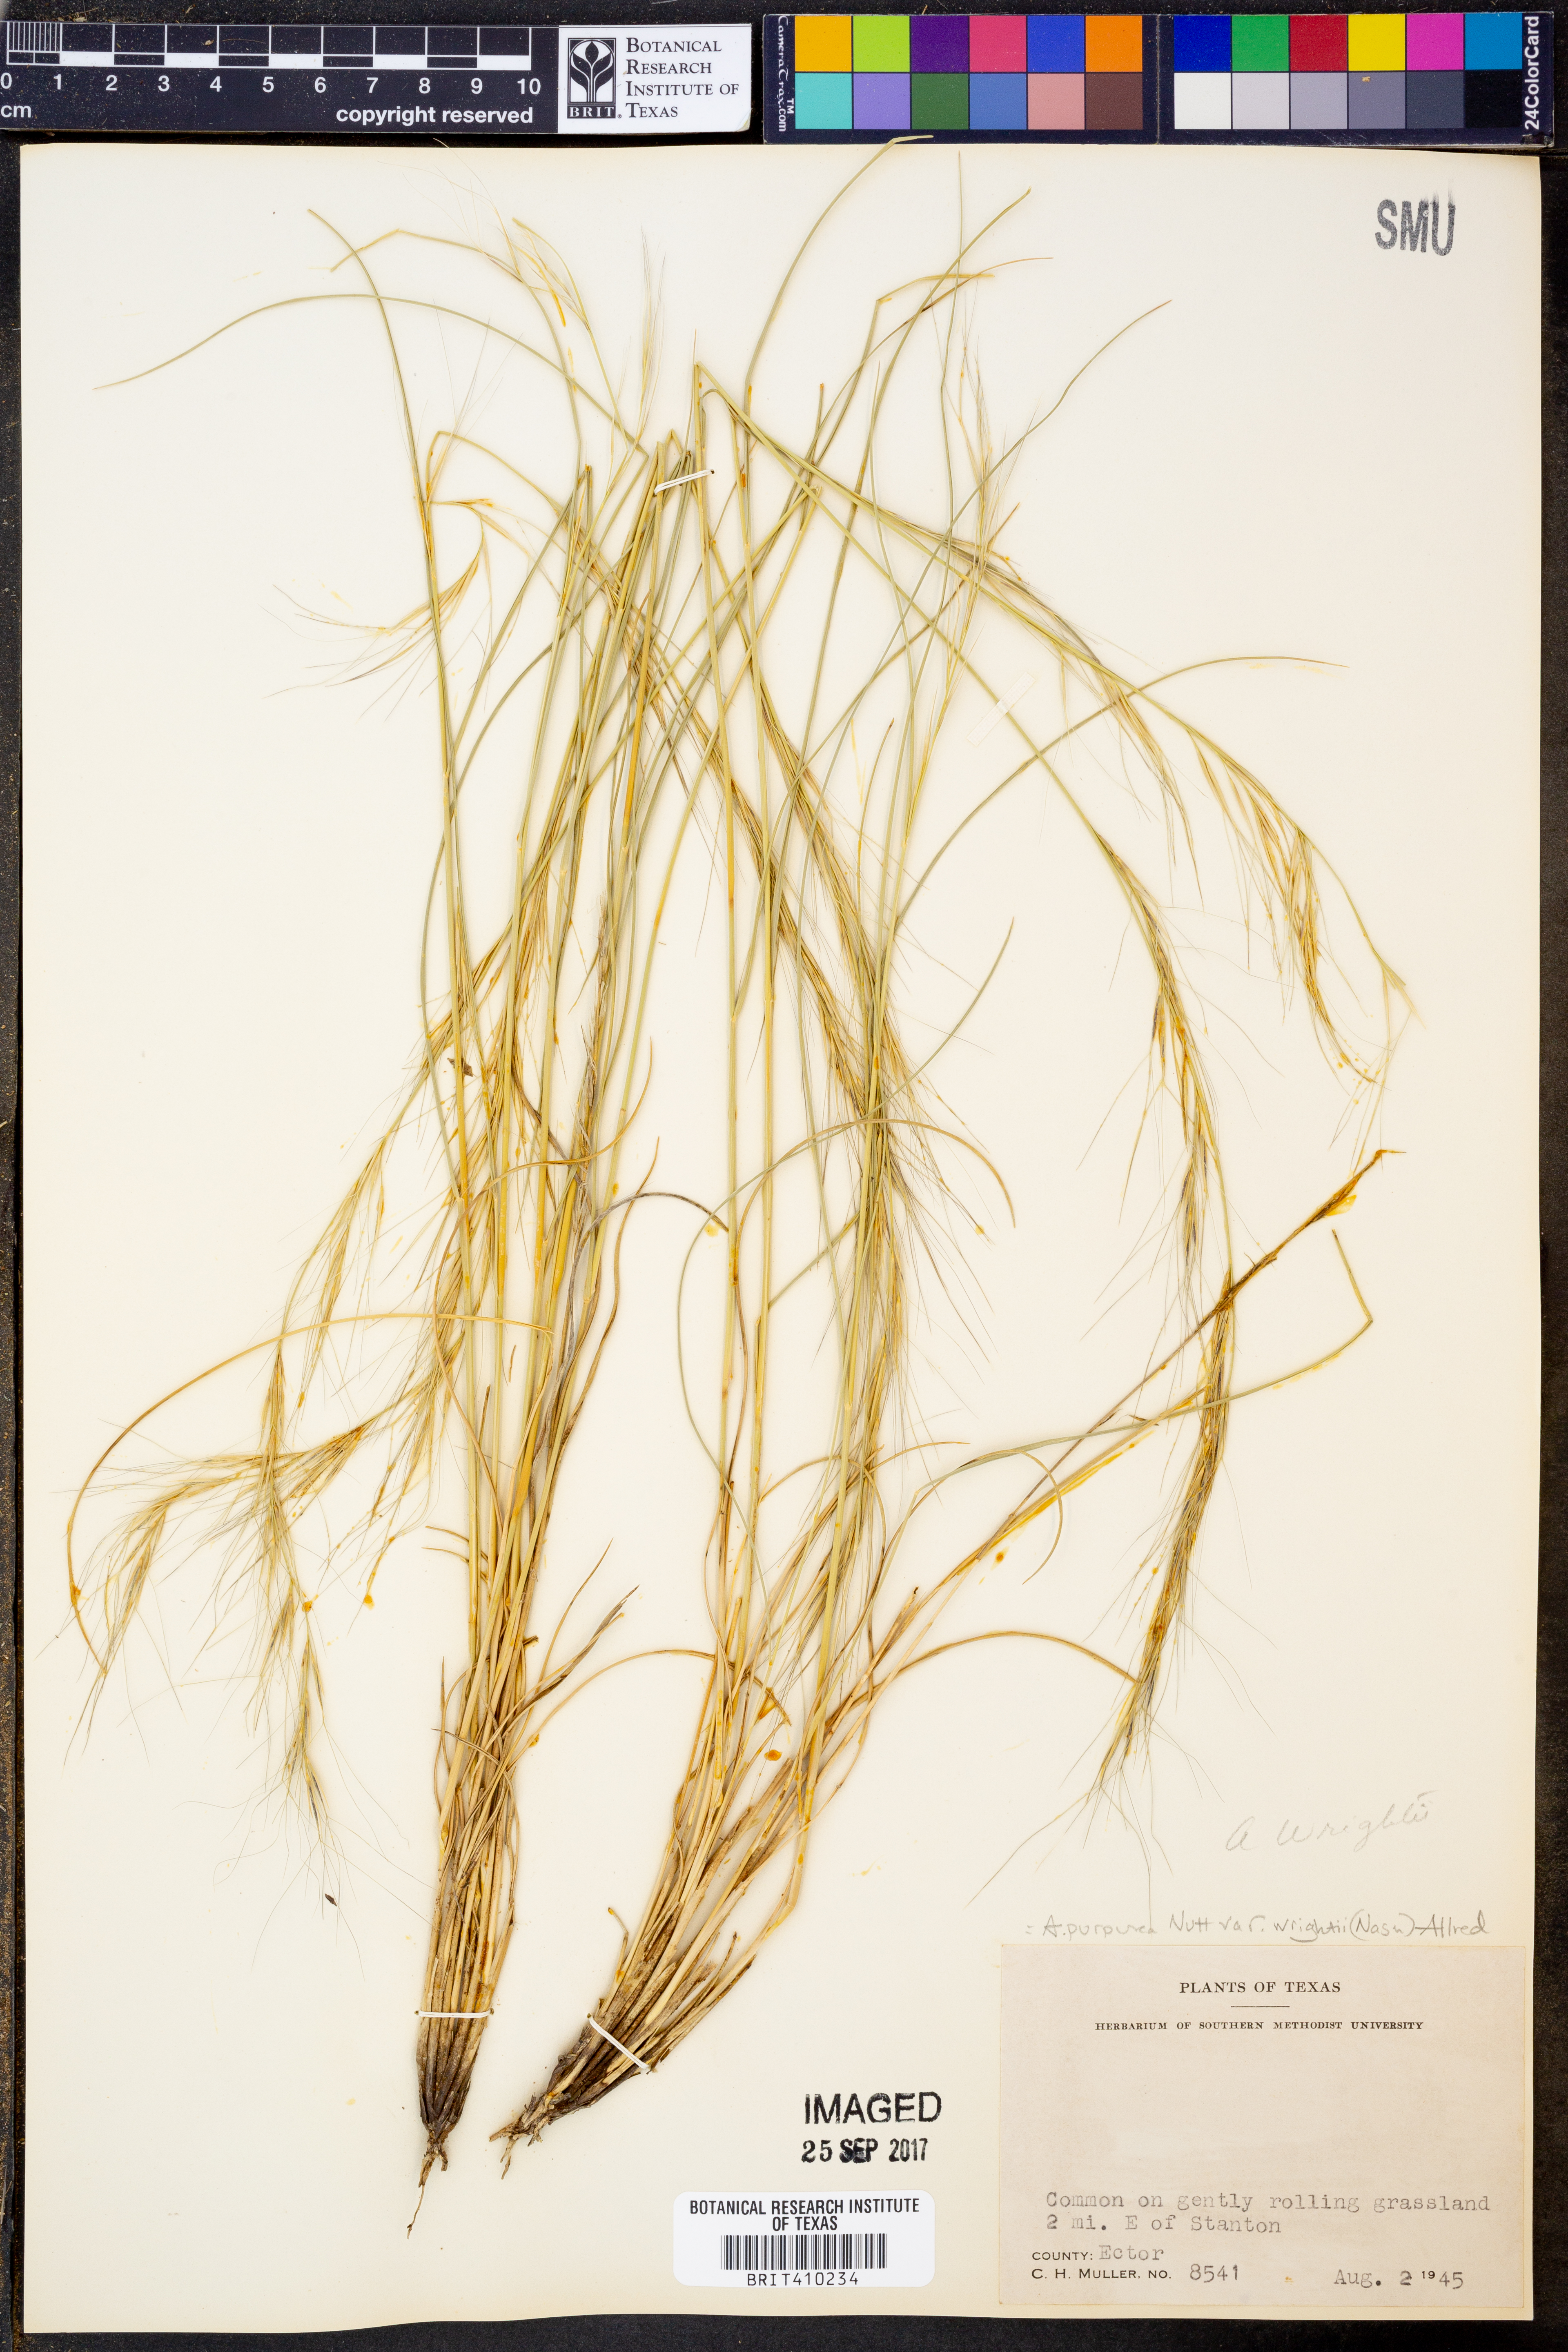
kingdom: Plantae
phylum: Tracheophyta
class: Liliopsida
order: Poales
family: Poaceae
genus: Aristida
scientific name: Aristida wrightii
